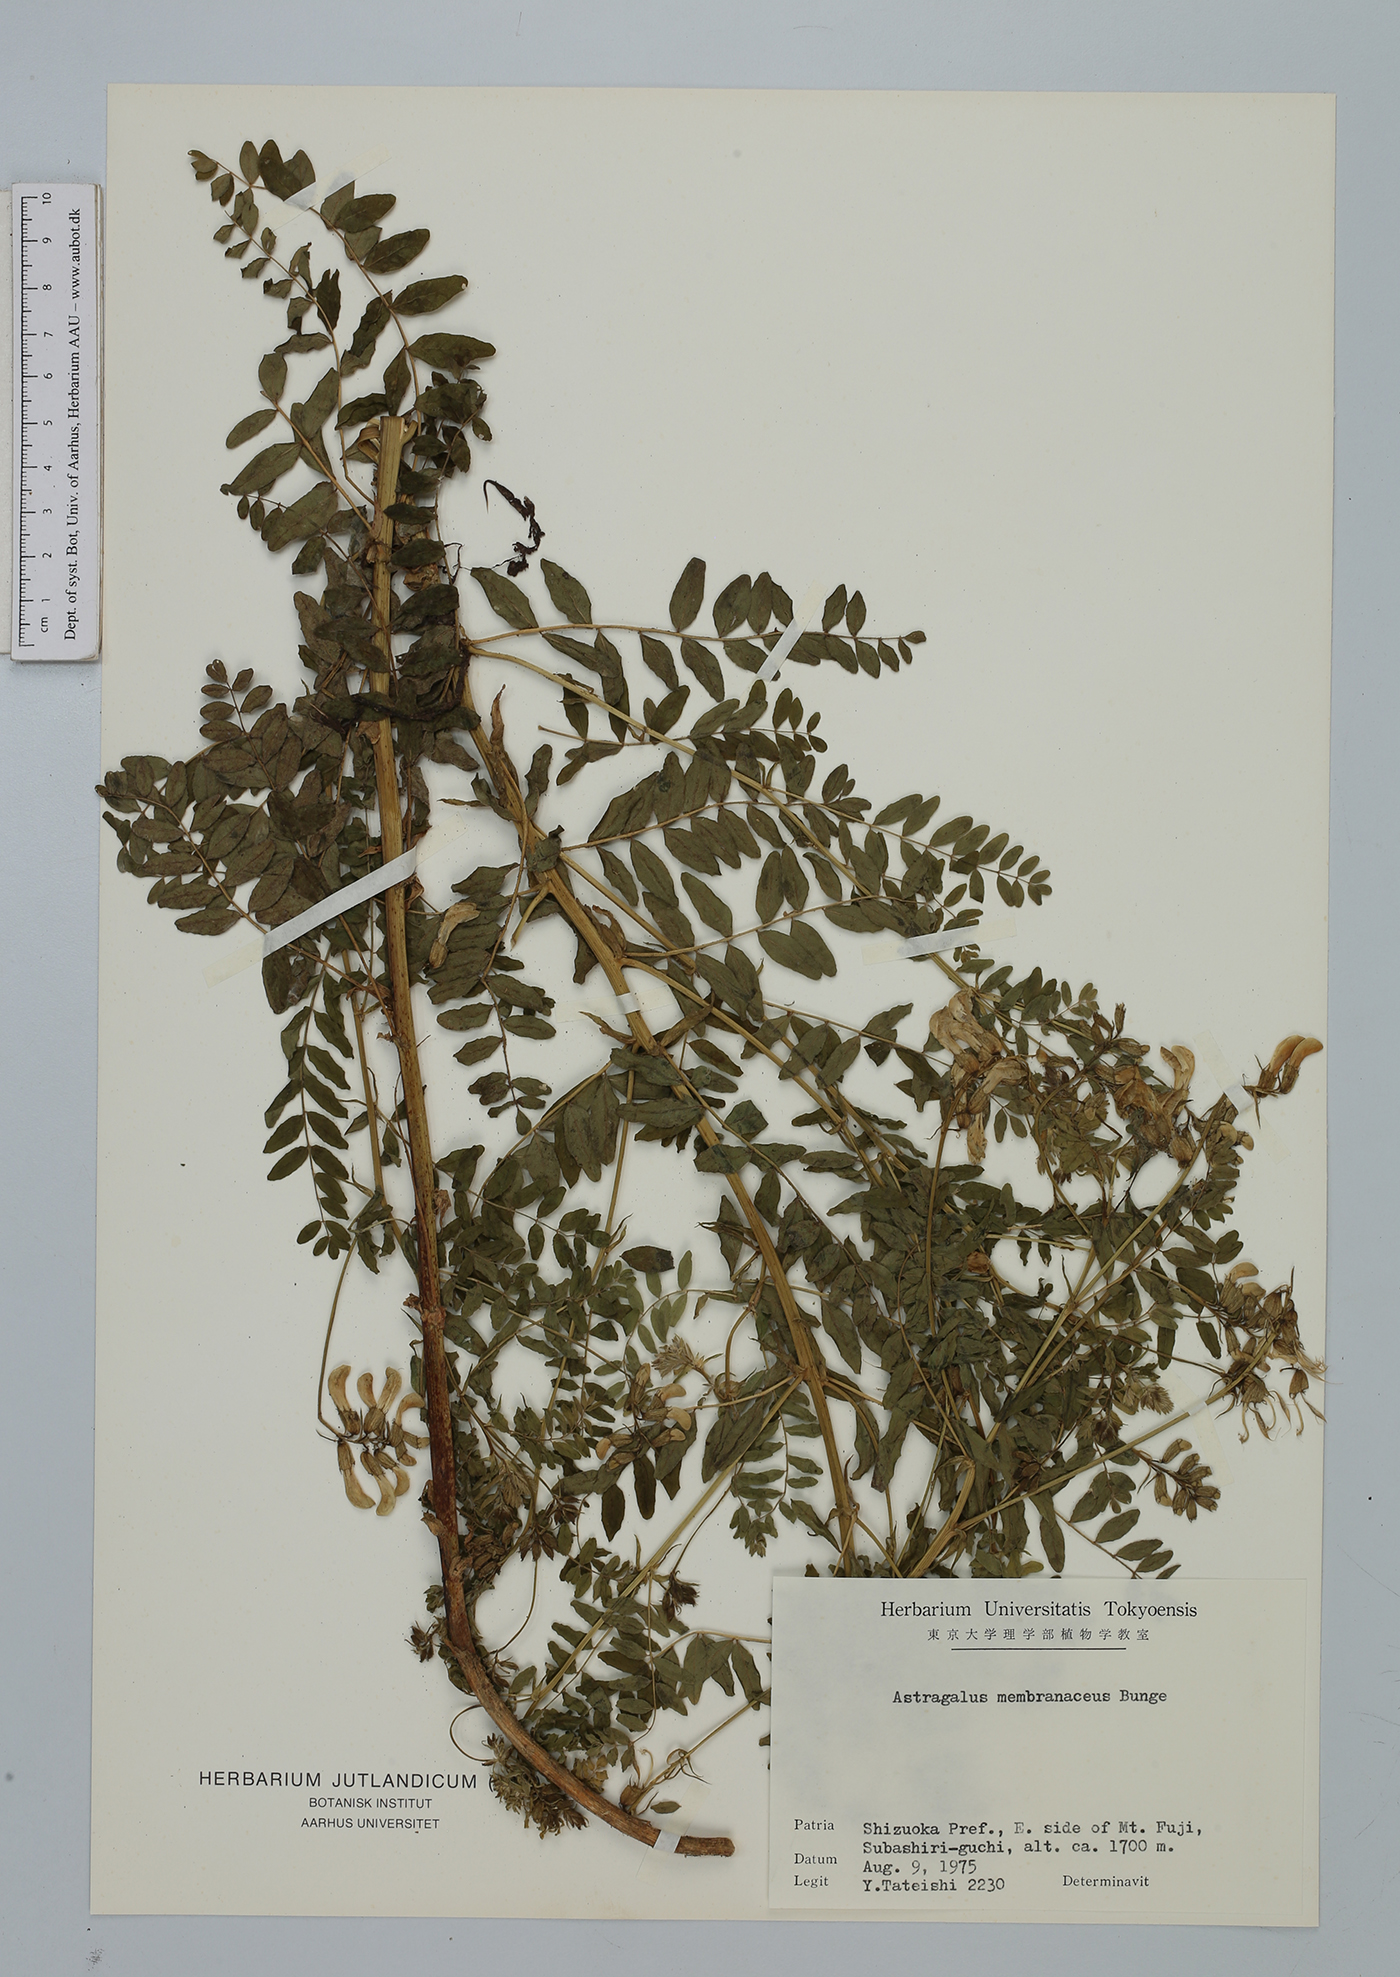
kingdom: Plantae
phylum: Tracheophyta
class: Magnoliopsida
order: Fabales
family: Fabaceae
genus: Astragalus
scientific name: Astragalus mongholicus
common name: Membranous milk-vetch
